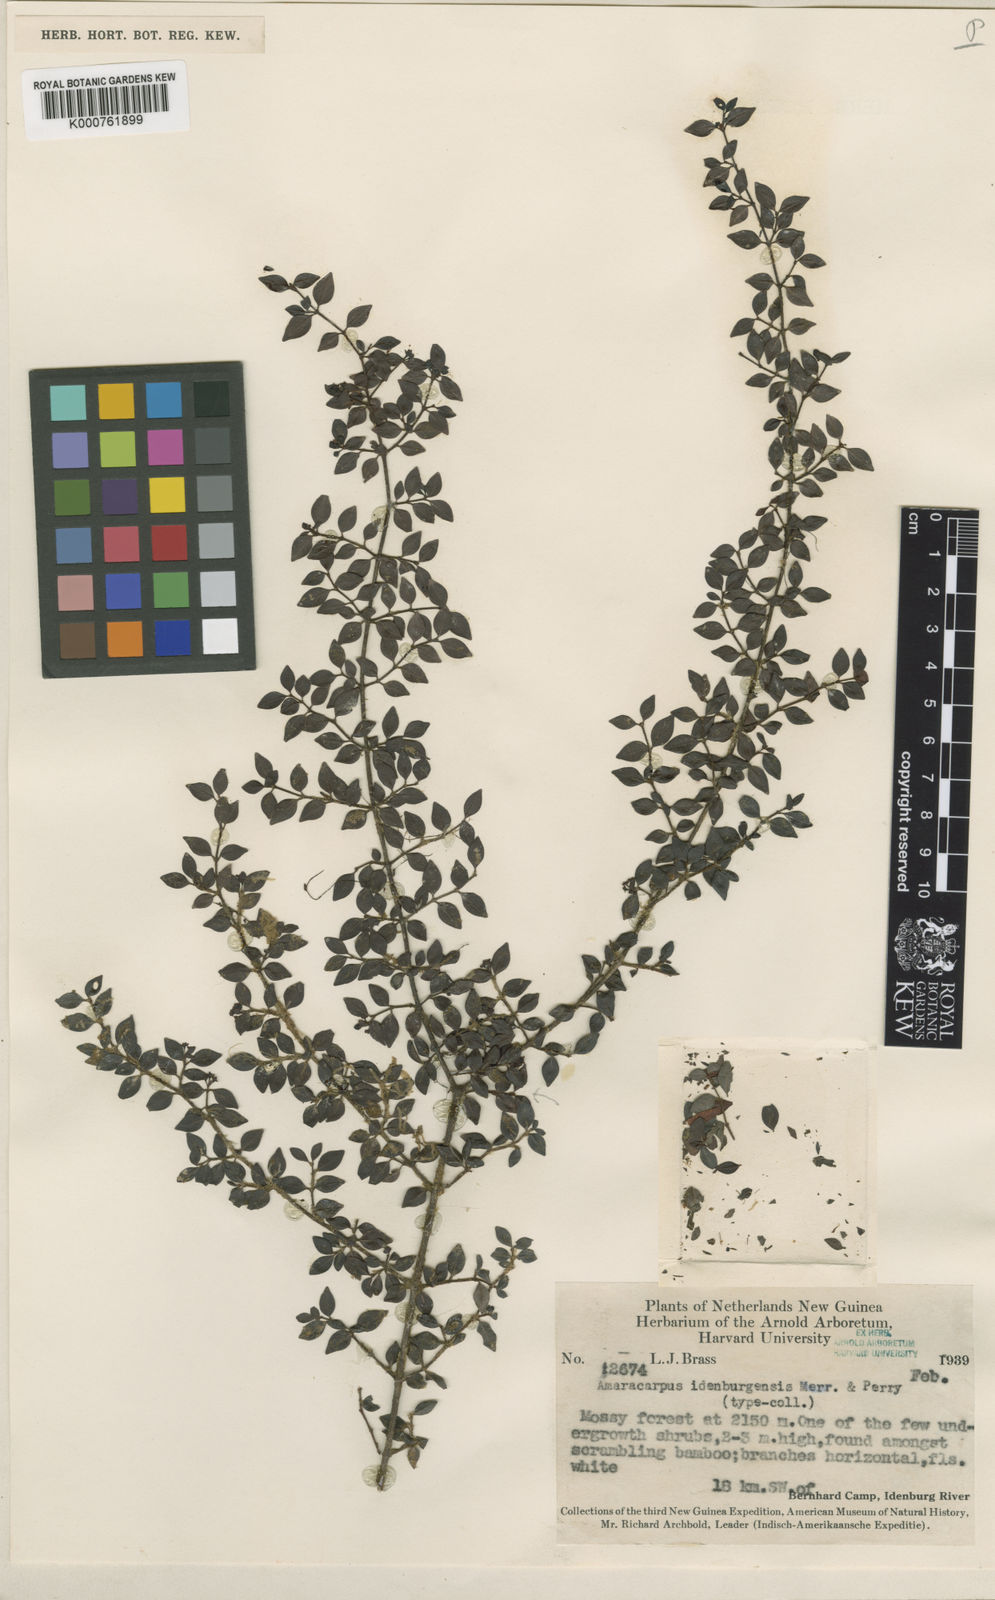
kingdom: Plantae
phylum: Tracheophyta
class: Magnoliopsida
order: Gentianales
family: Rubiaceae
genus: Amaracarpus
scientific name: Amaracarpus idenburgensis
